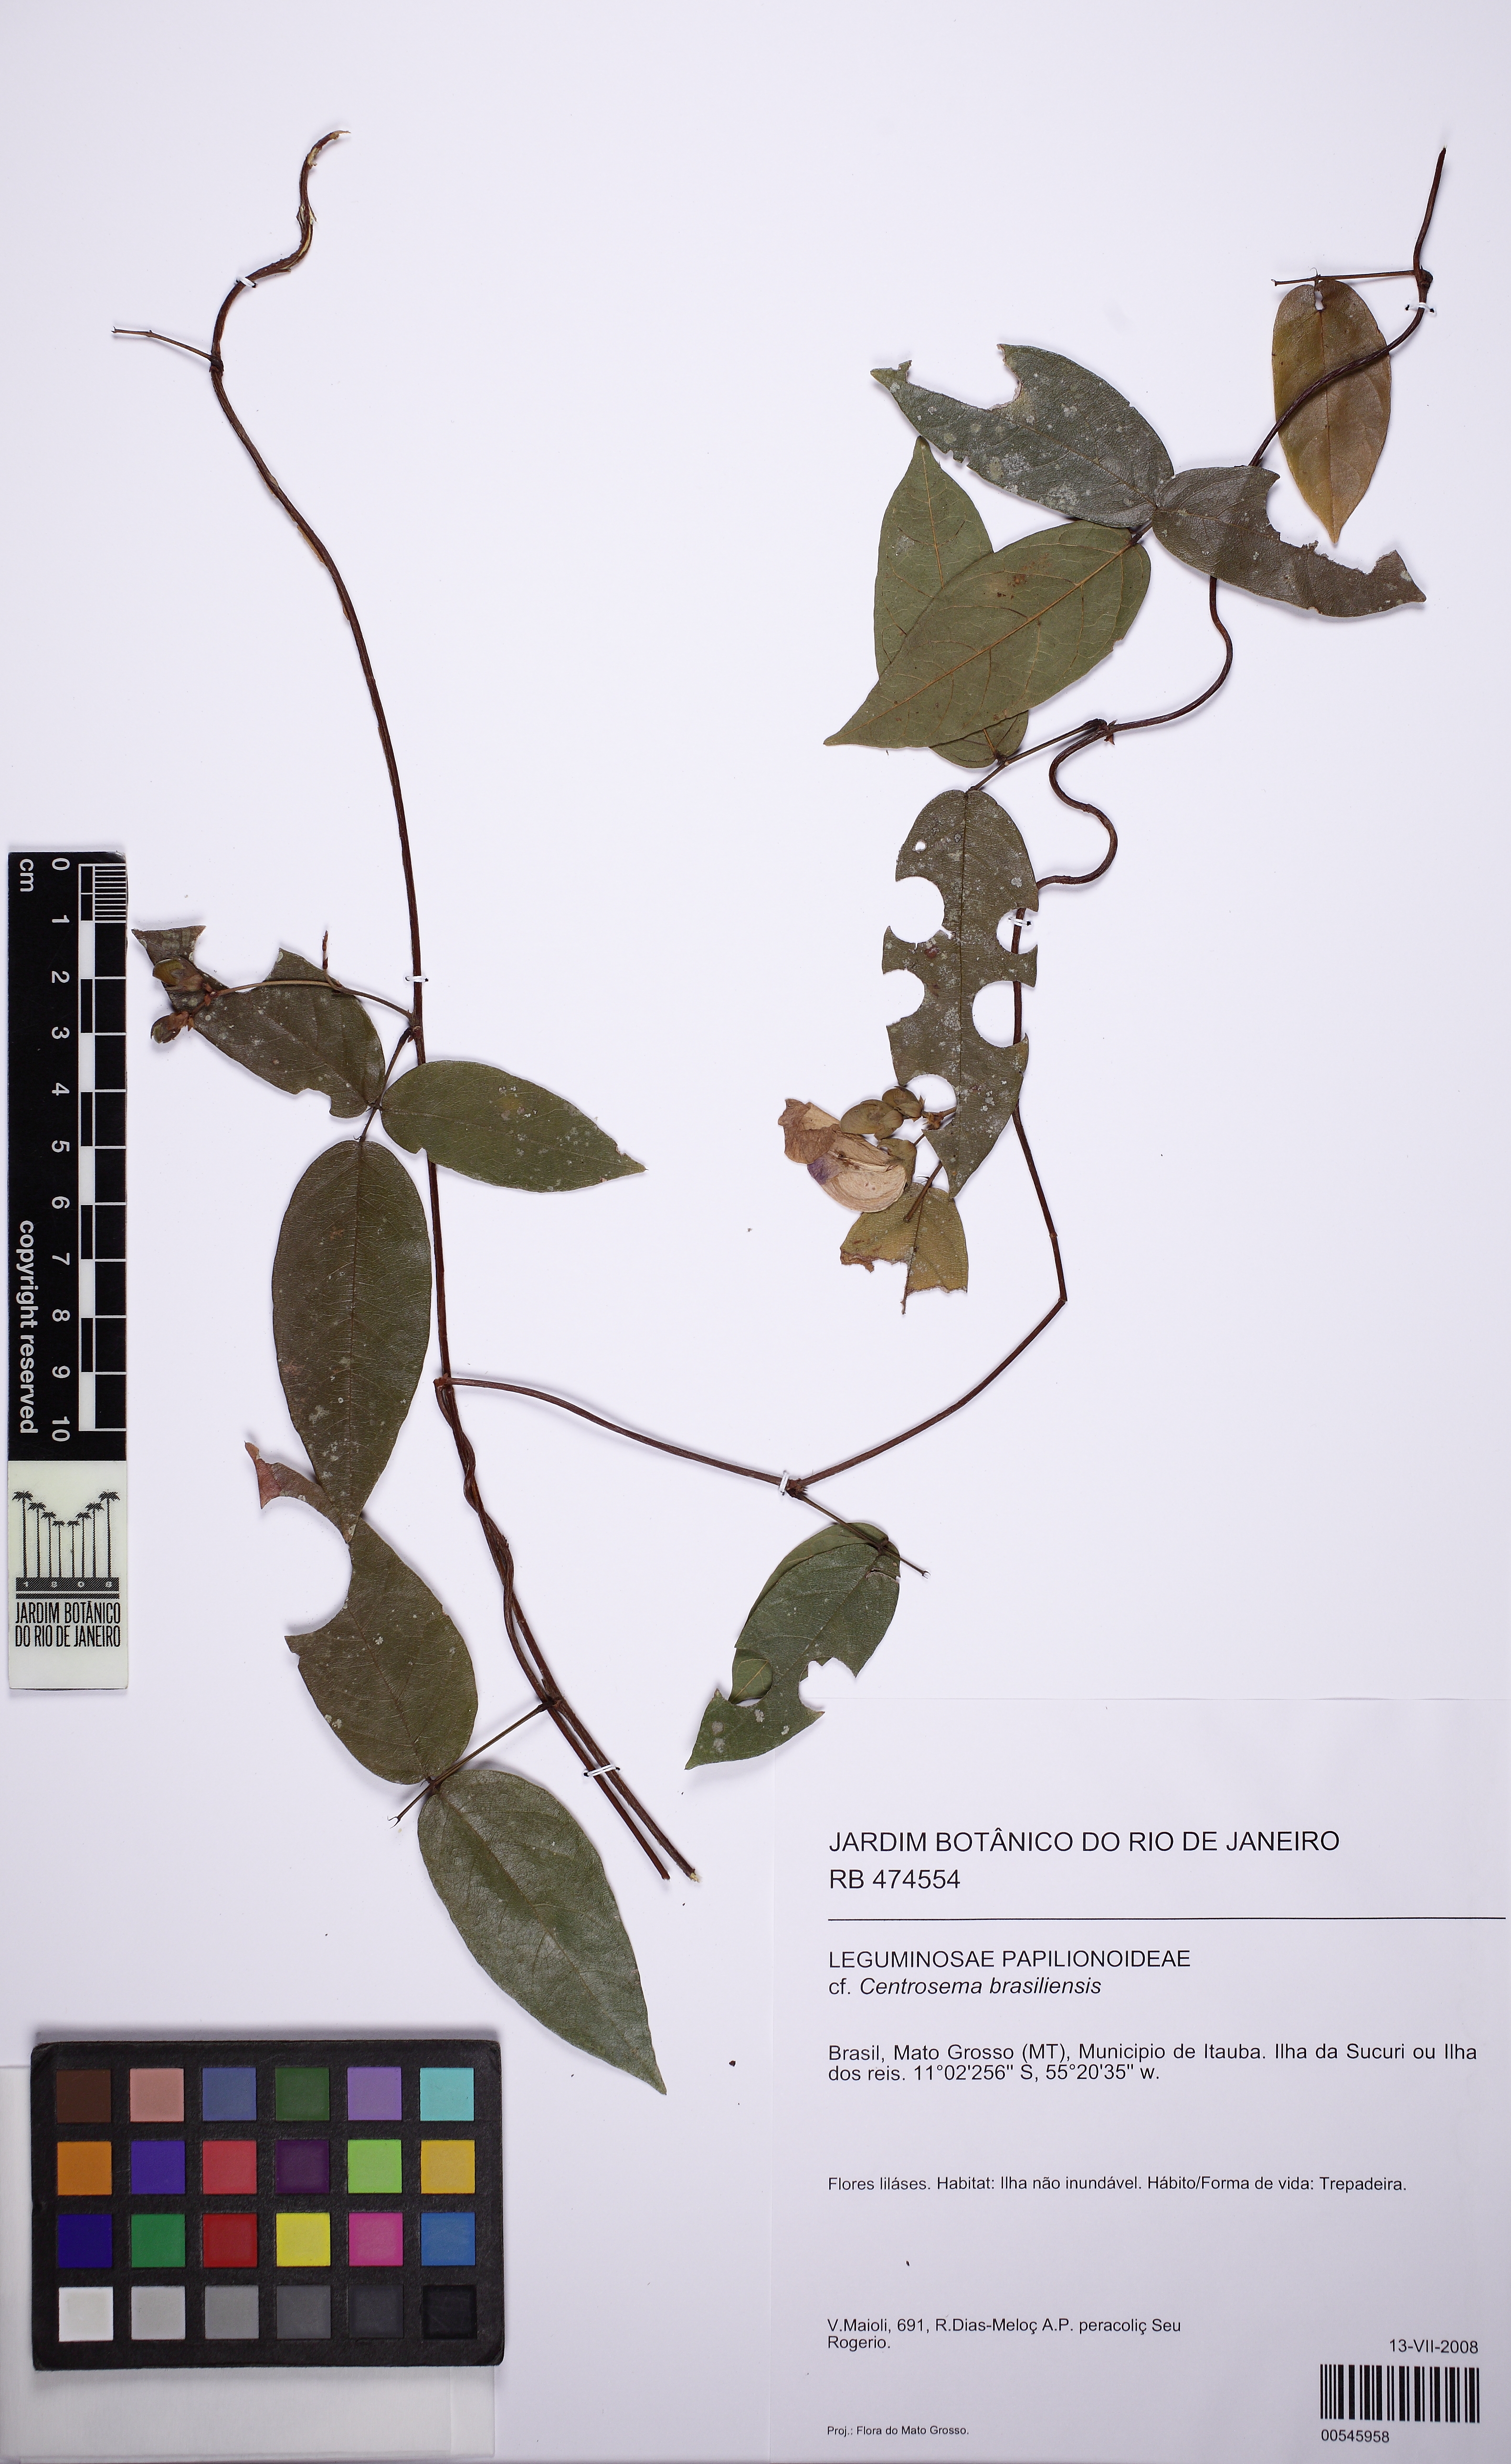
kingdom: Plantae
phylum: Tracheophyta
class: Magnoliopsida
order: Fabales
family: Fabaceae
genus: Centrosema
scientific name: Centrosema brasilianum
